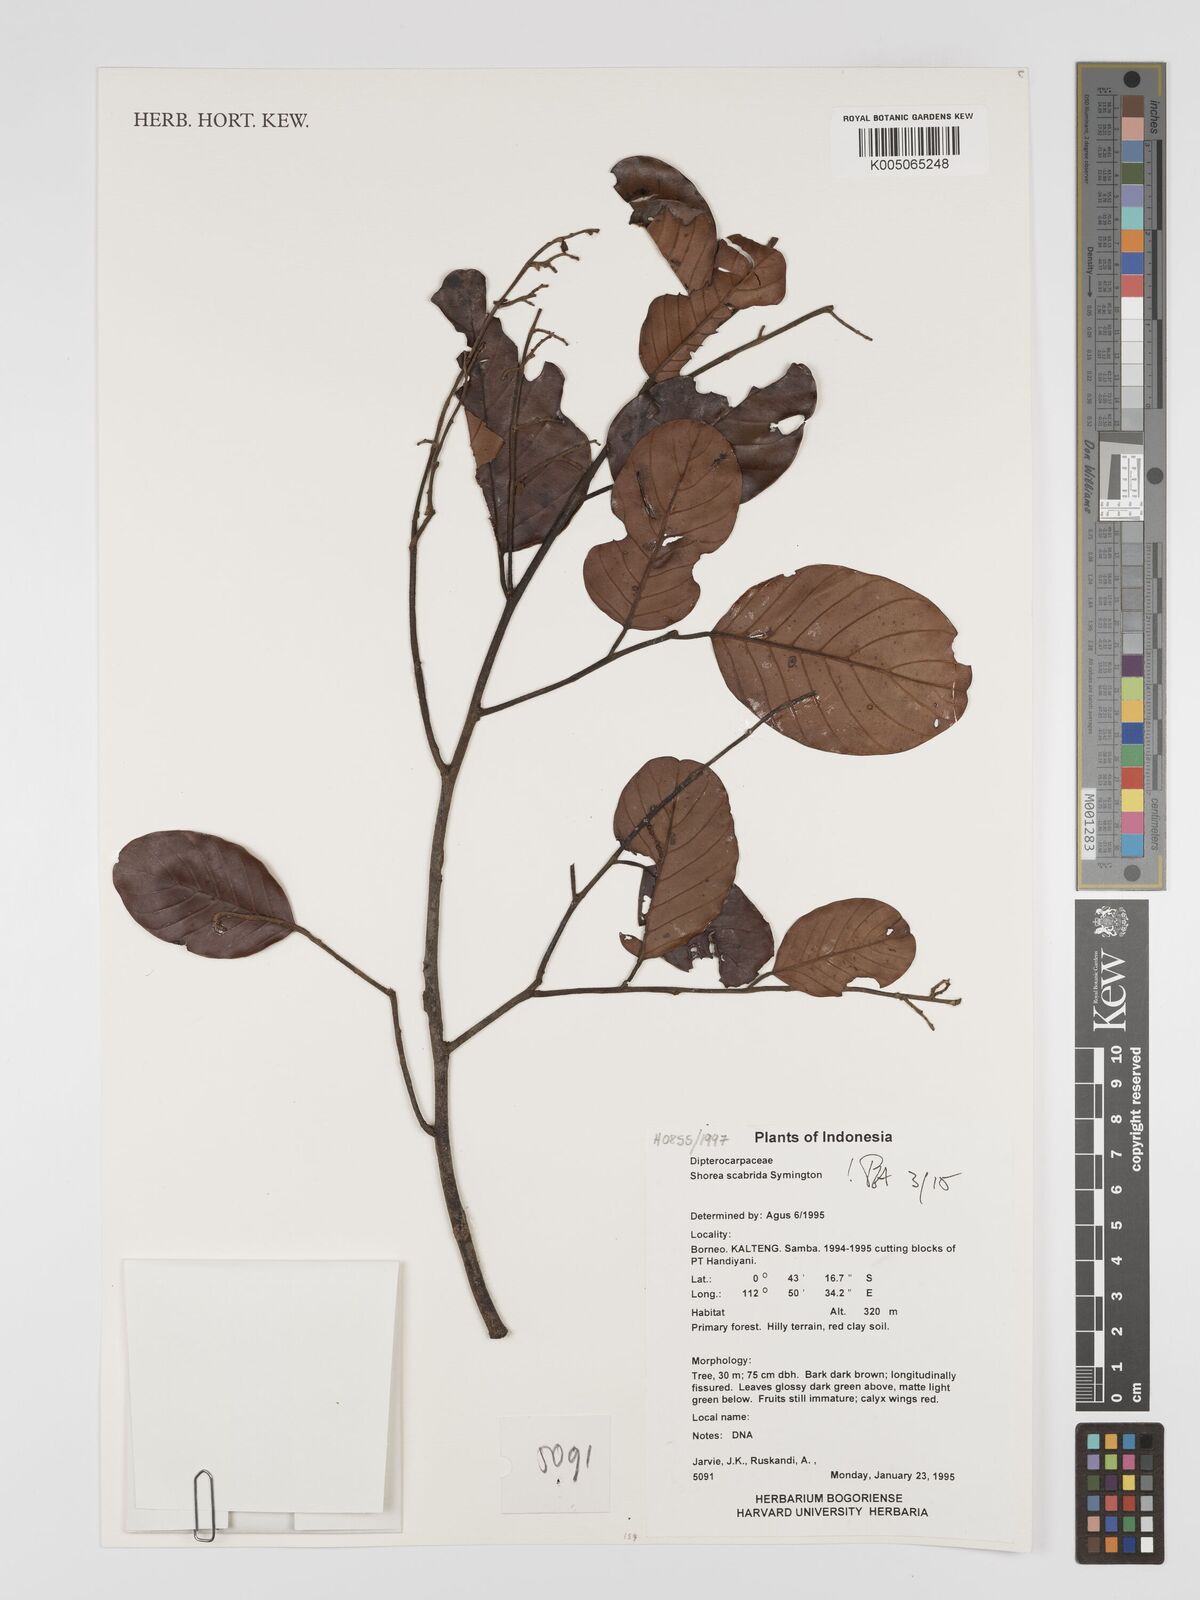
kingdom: Plantae
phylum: Tracheophyta
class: Magnoliopsida
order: Malvales
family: Dipterocarpaceae
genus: Shorea
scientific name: Shorea scabrida
